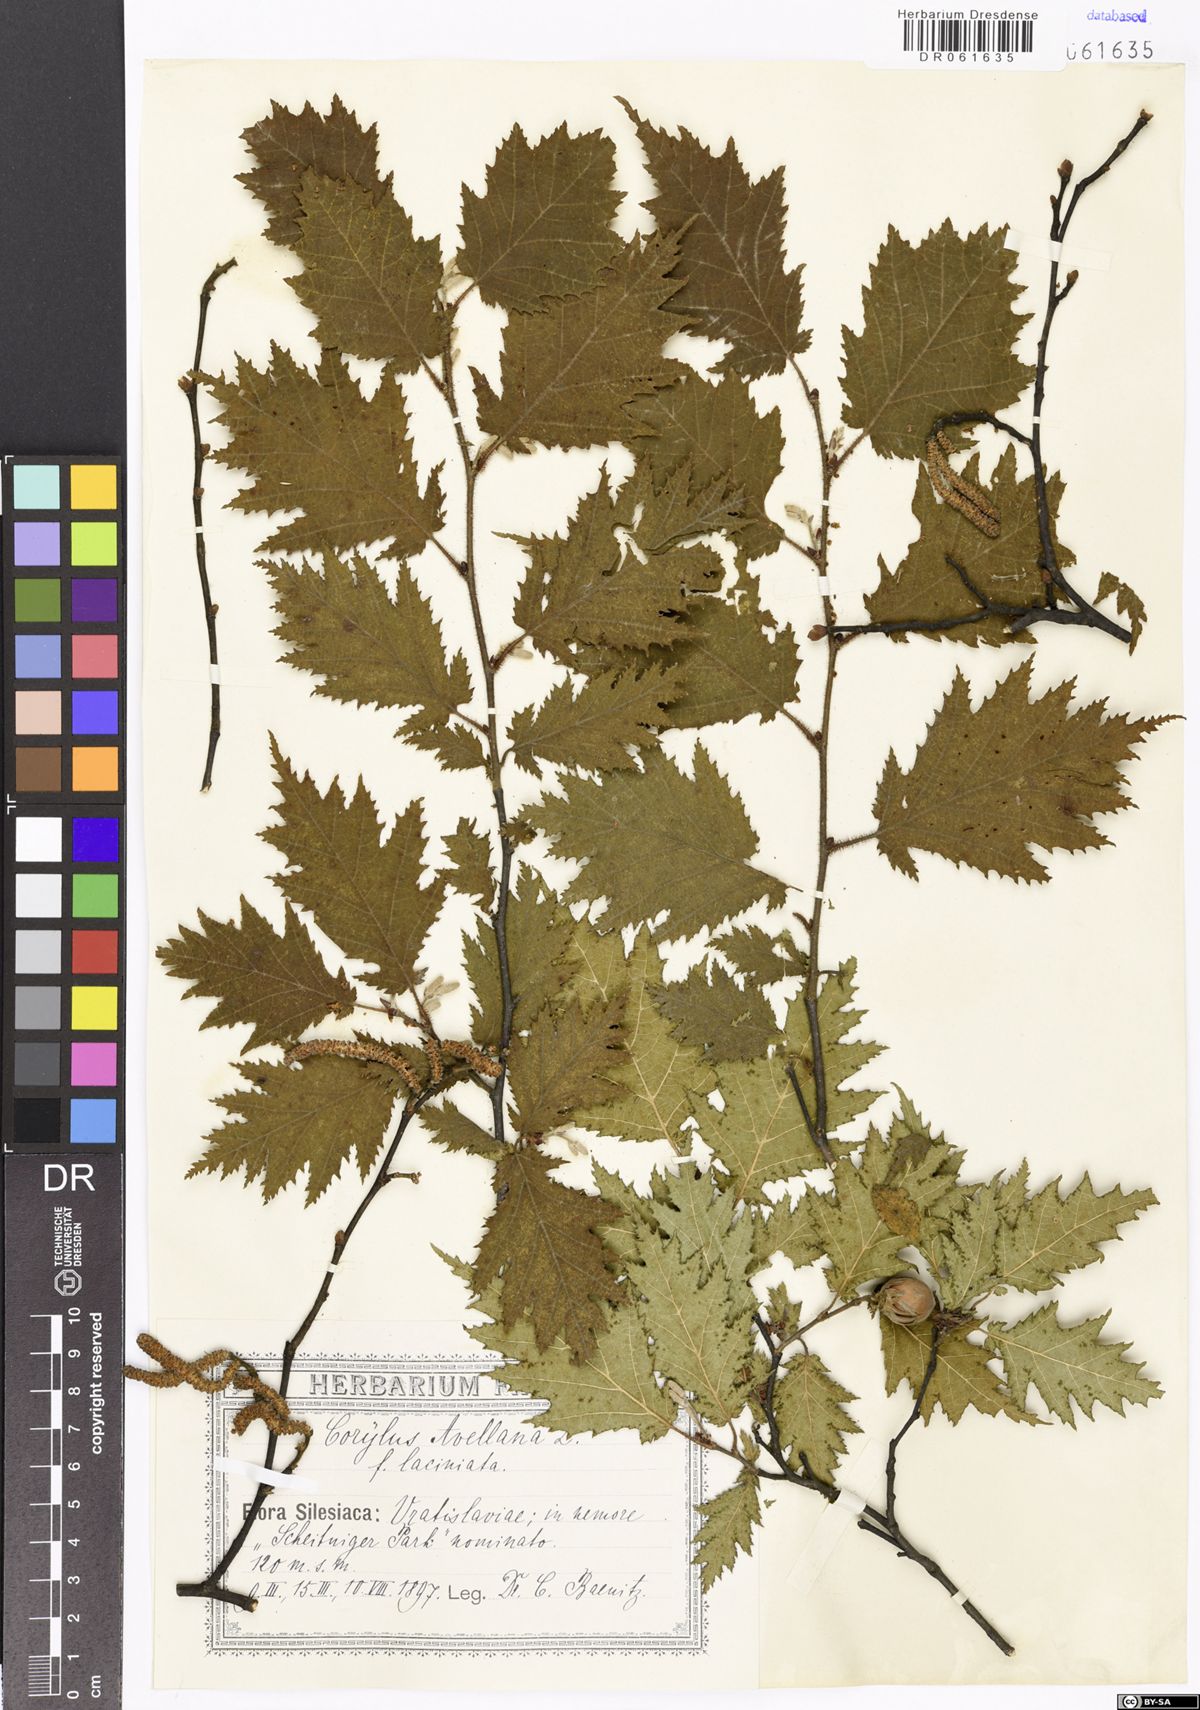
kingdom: Plantae
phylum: Tracheophyta
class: Magnoliopsida
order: Fagales
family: Betulaceae
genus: Corylus
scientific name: Corylus avellana
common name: European hazel
